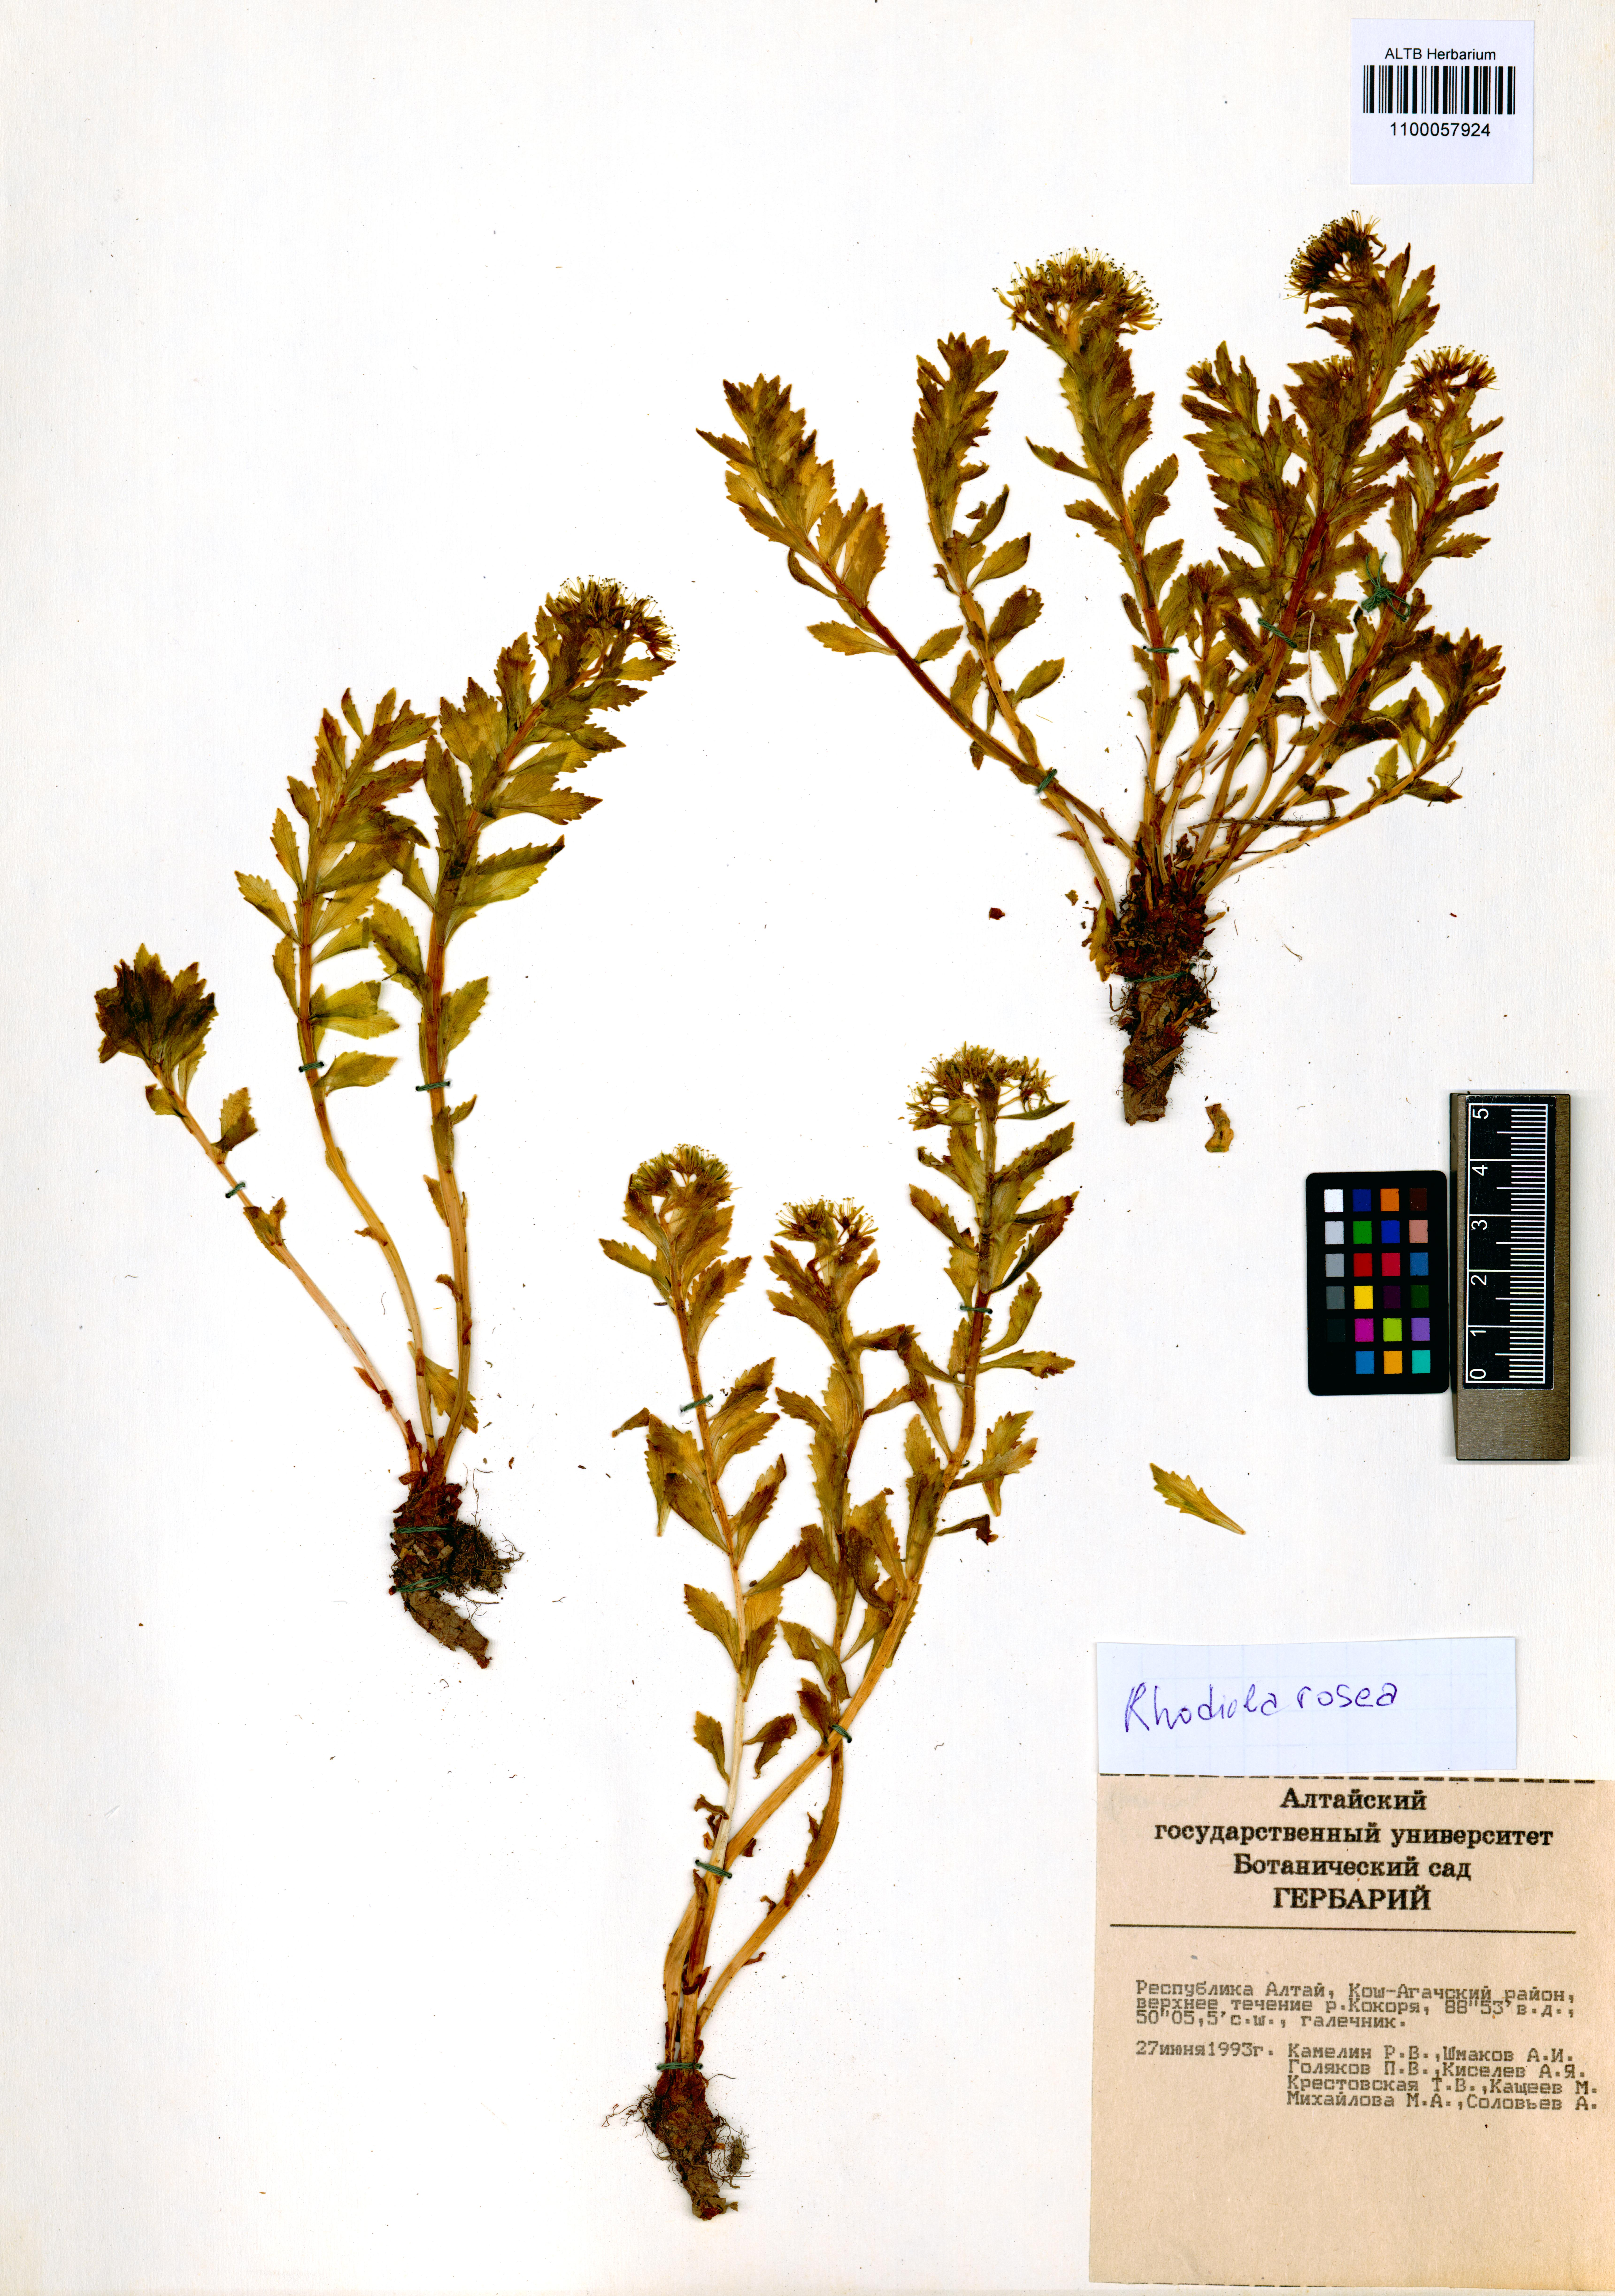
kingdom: Plantae
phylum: Tracheophyta
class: Magnoliopsida
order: Saxifragales
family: Crassulaceae
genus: Rhodiola
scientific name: Rhodiola rosea
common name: Roseroot
